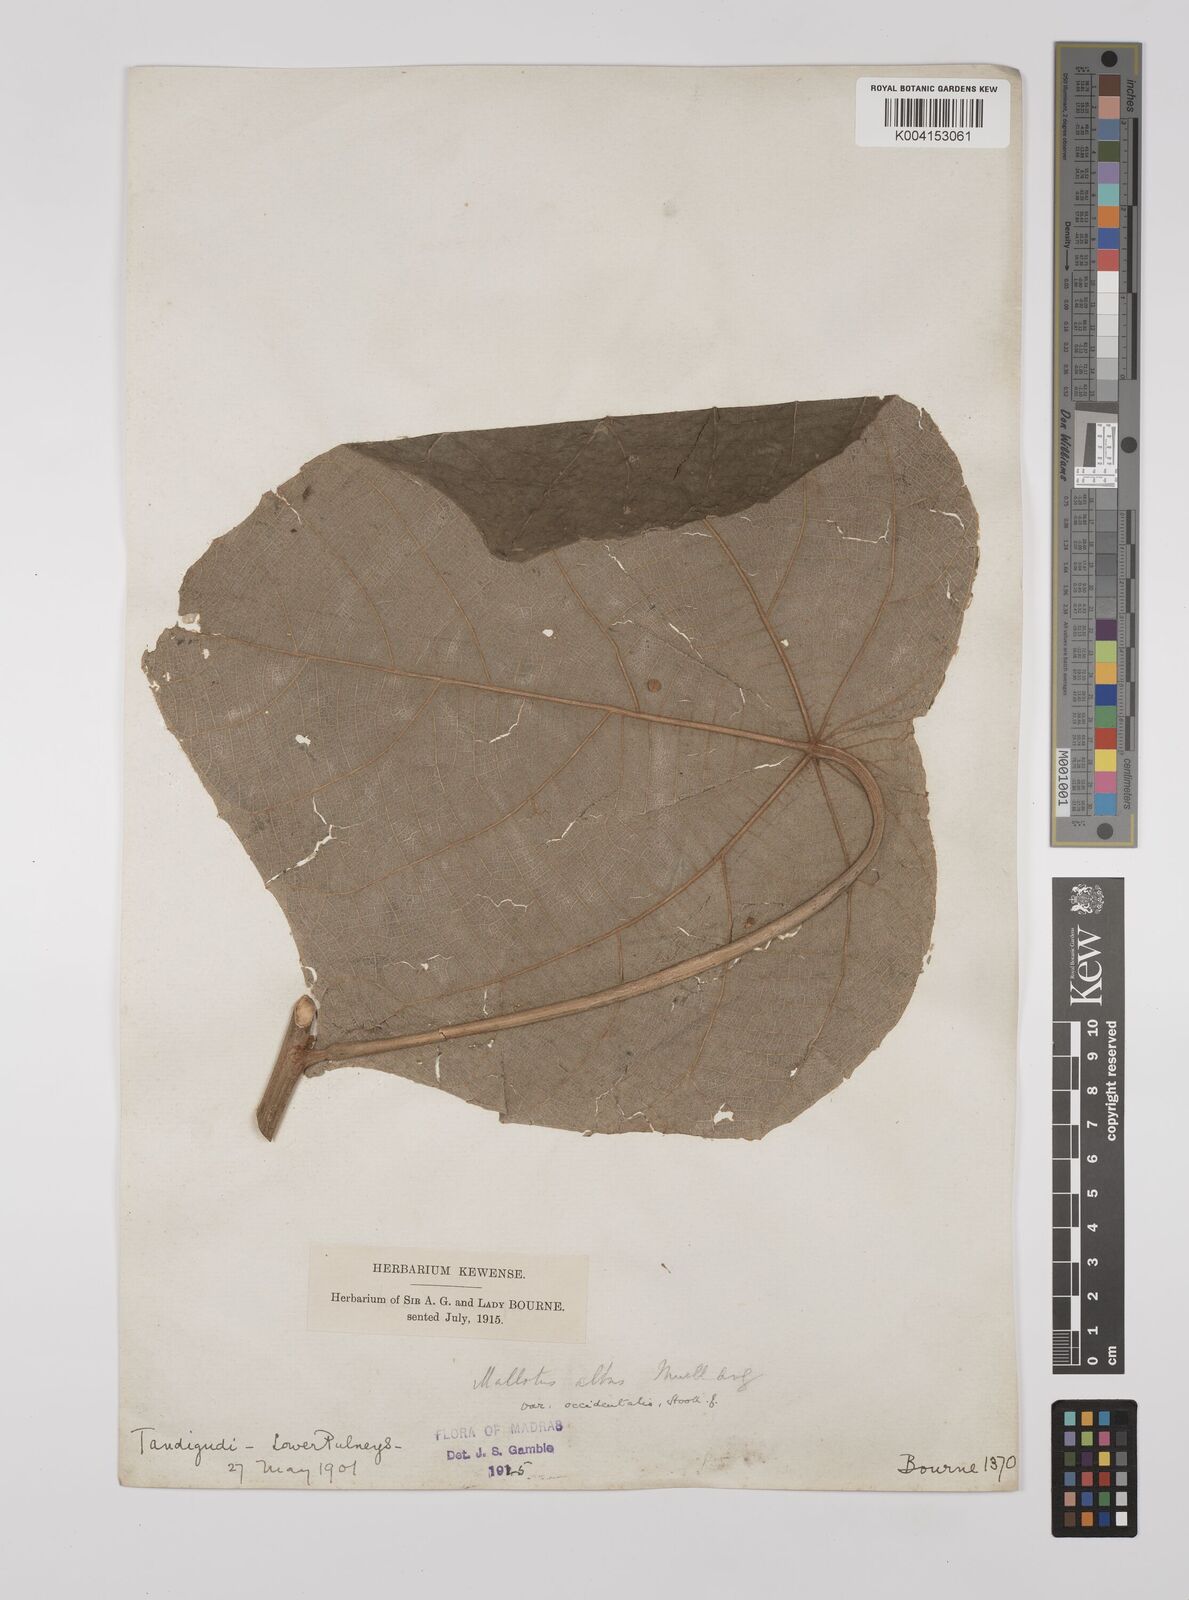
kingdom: Plantae
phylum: Tracheophyta
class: Magnoliopsida
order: Malpighiales
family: Euphorbiaceae
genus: Mallotus
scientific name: Mallotus tetracoccus
